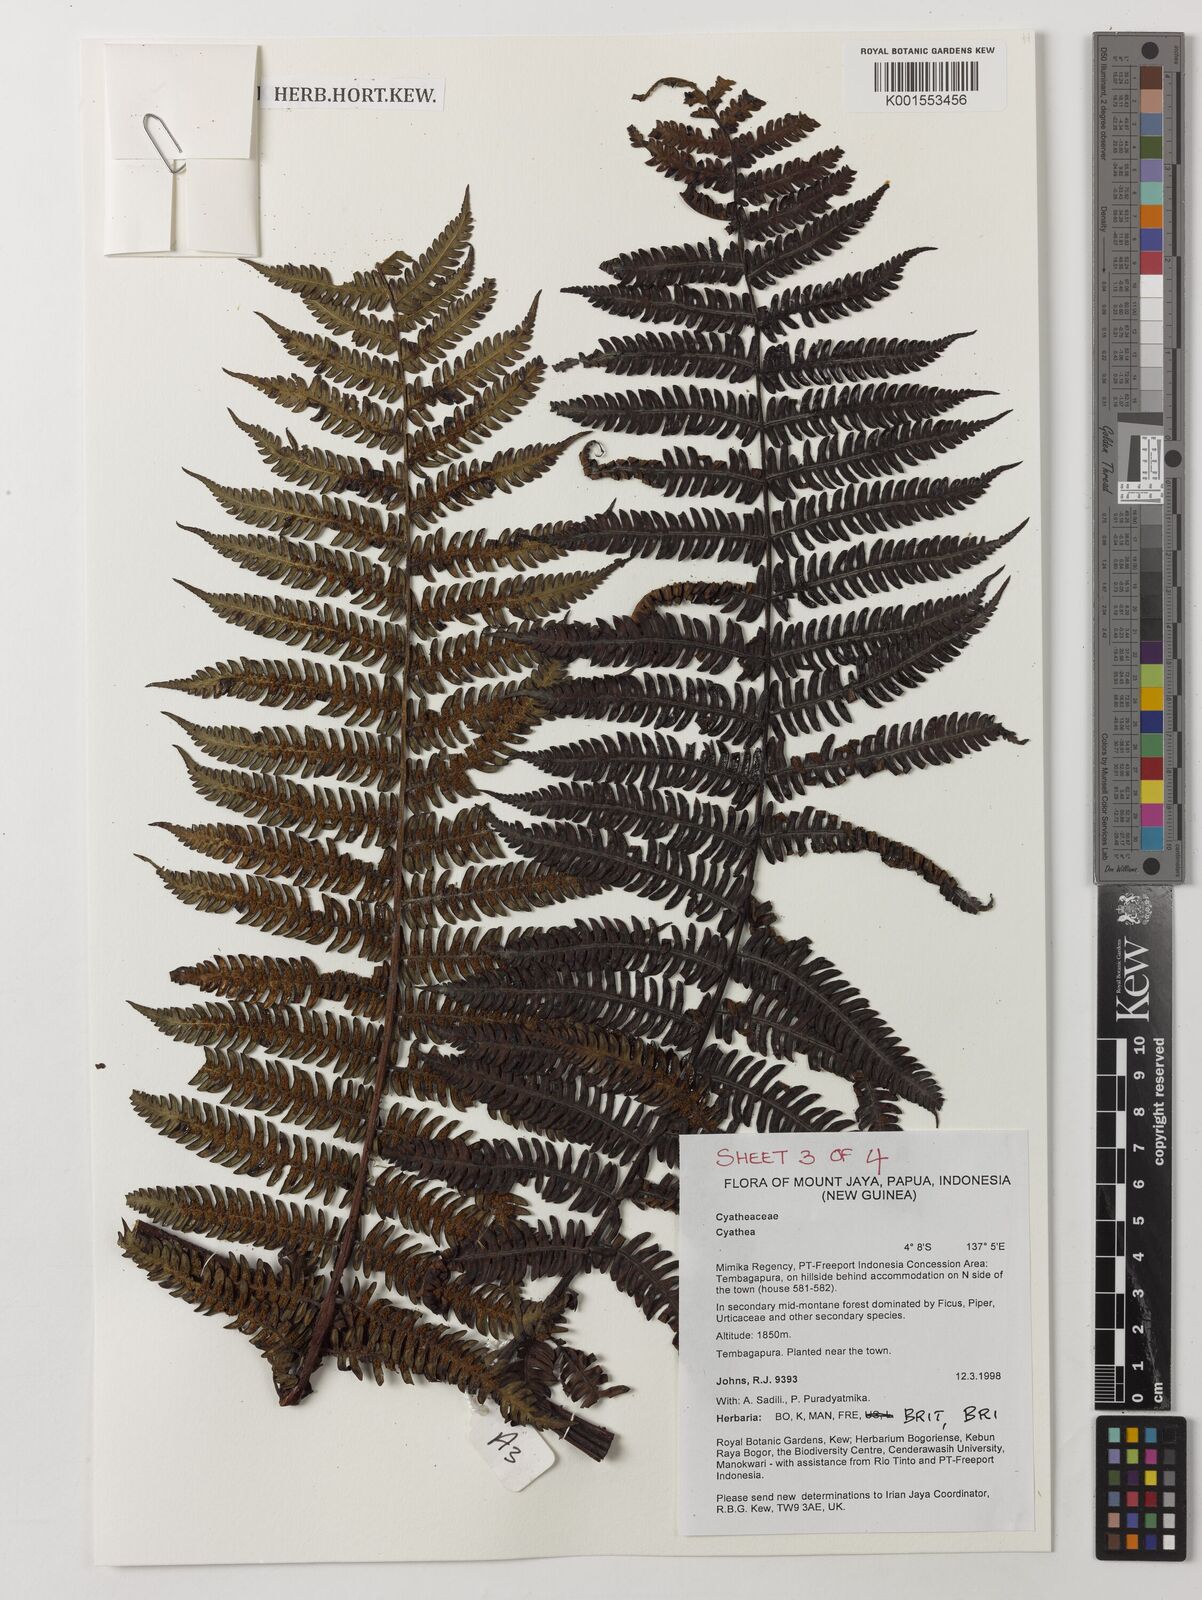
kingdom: Plantae
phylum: Tracheophyta
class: Polypodiopsida
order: Cyatheales
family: Cyatheaceae
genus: Cyathea
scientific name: Cyathea
